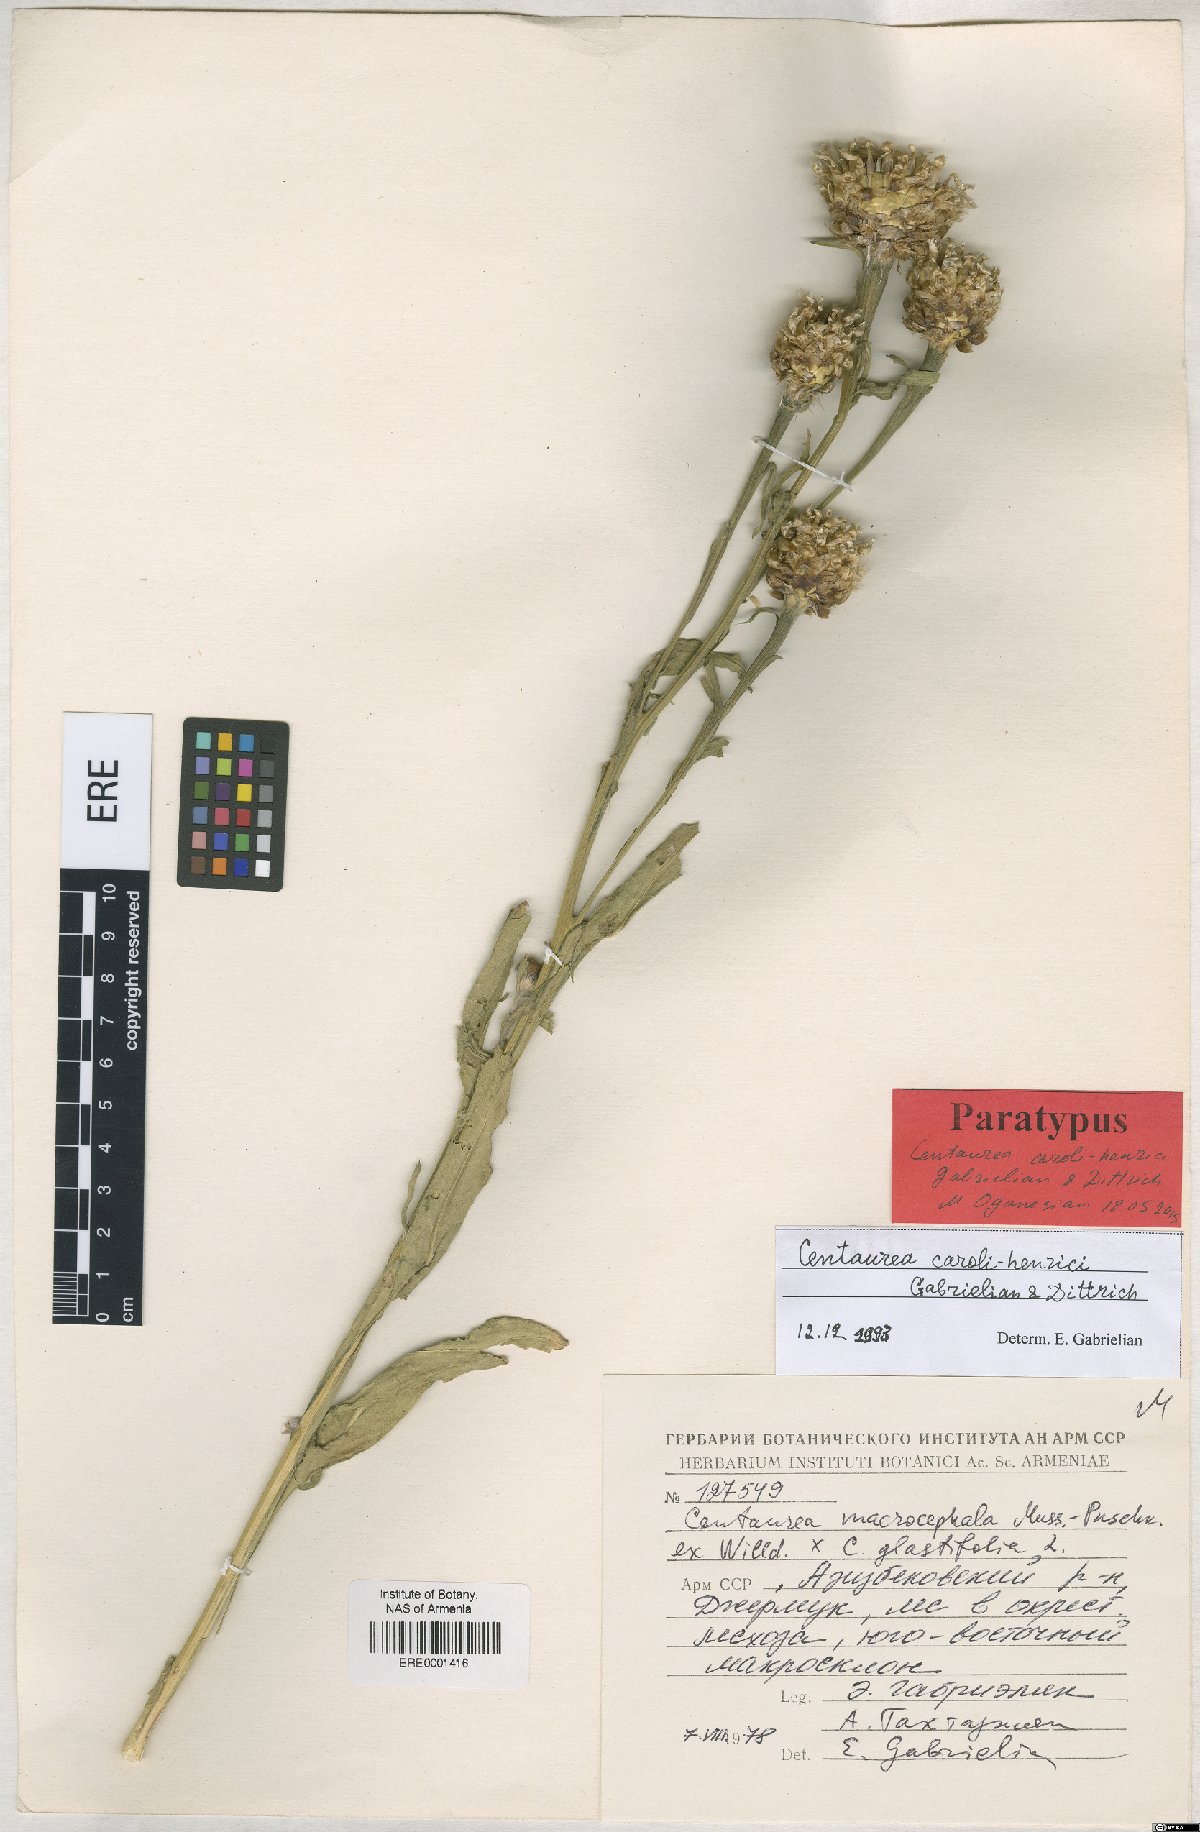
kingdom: Plantae
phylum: Tracheophyta
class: Magnoliopsida
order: Asterales
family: Asteraceae
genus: Centaurea
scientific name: Centaurea caroli-henrici
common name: Karl-henrikh's centaury
